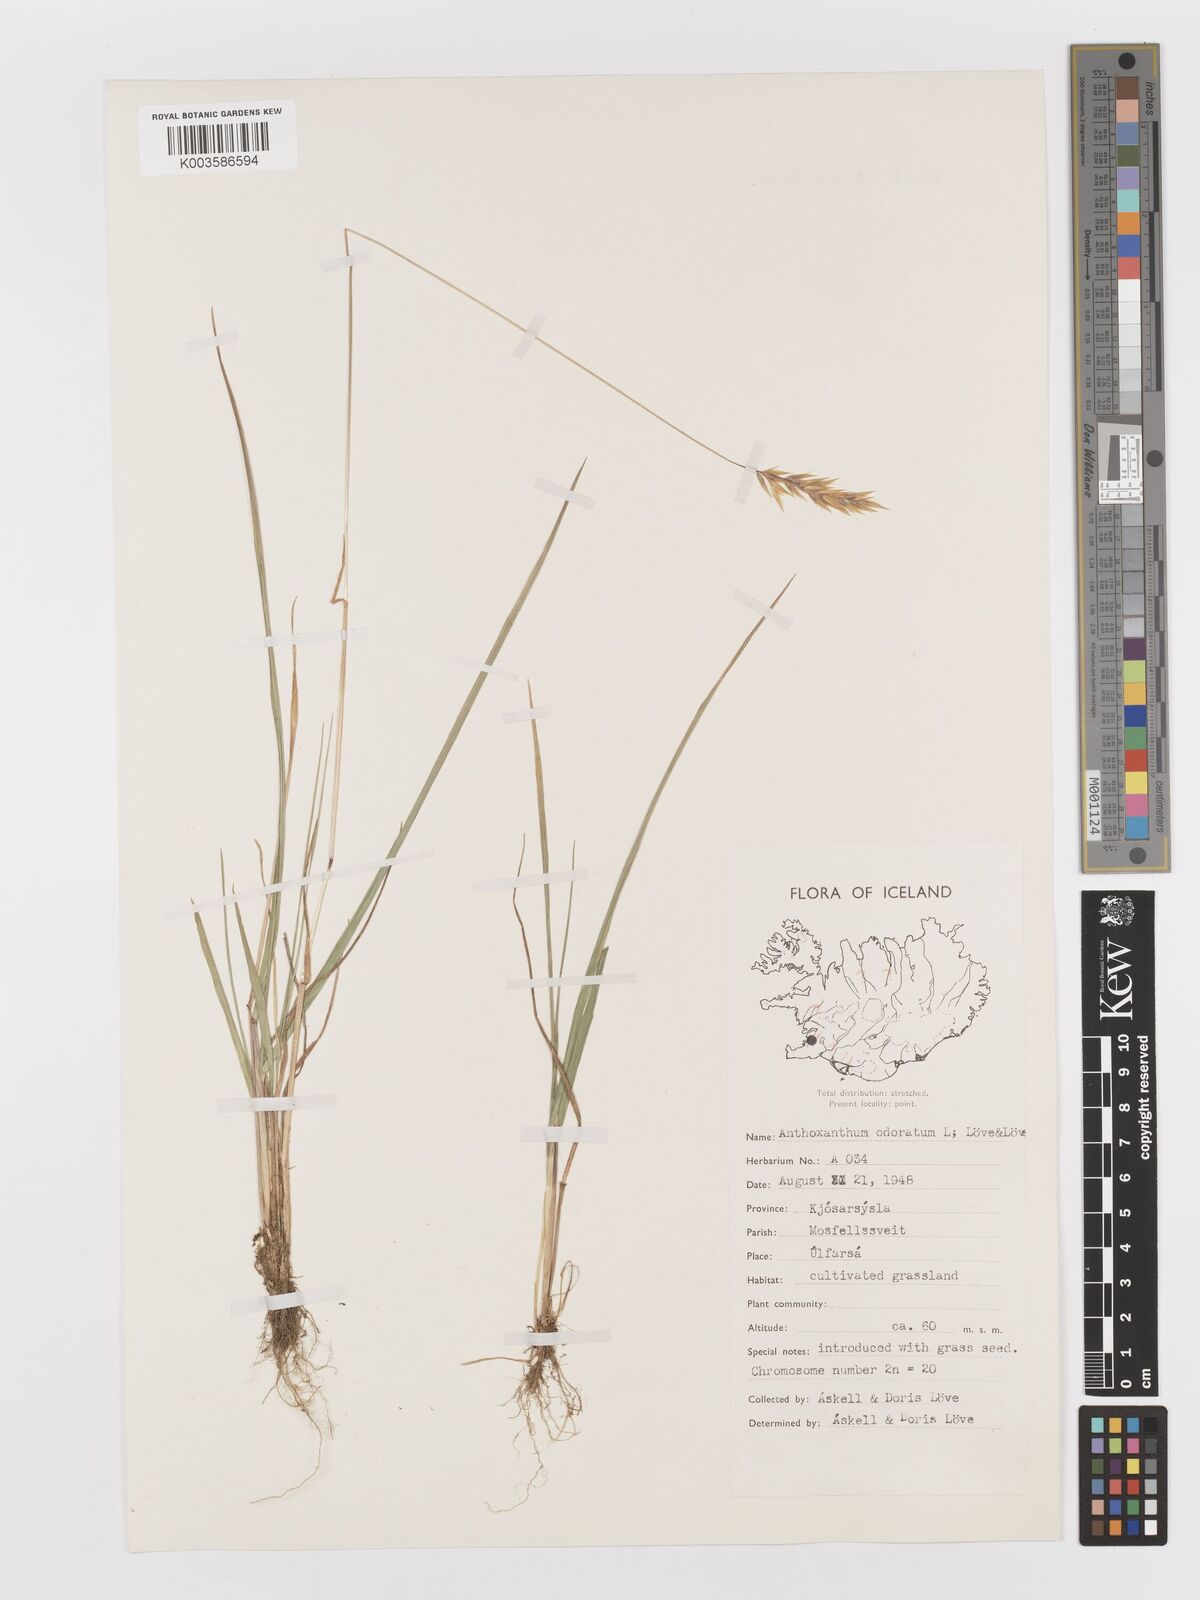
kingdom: Plantae
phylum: Tracheophyta
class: Liliopsida
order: Poales
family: Poaceae
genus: Anthoxanthum
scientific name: Anthoxanthum odoratum
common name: Sweet vernalgrass
